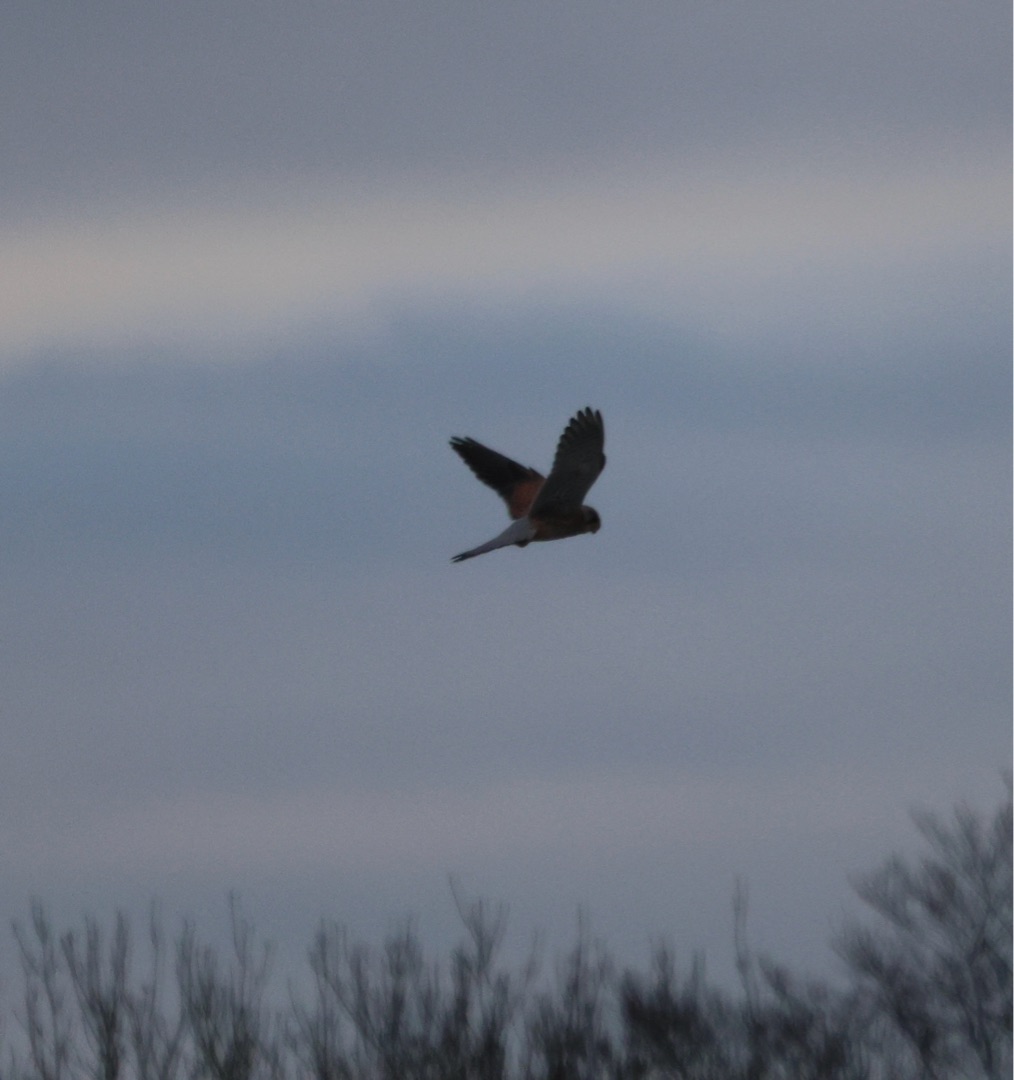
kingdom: Animalia
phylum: Chordata
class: Aves
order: Falconiformes
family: Falconidae
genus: Falco
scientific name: Falco tinnunculus
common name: Tårnfalk
